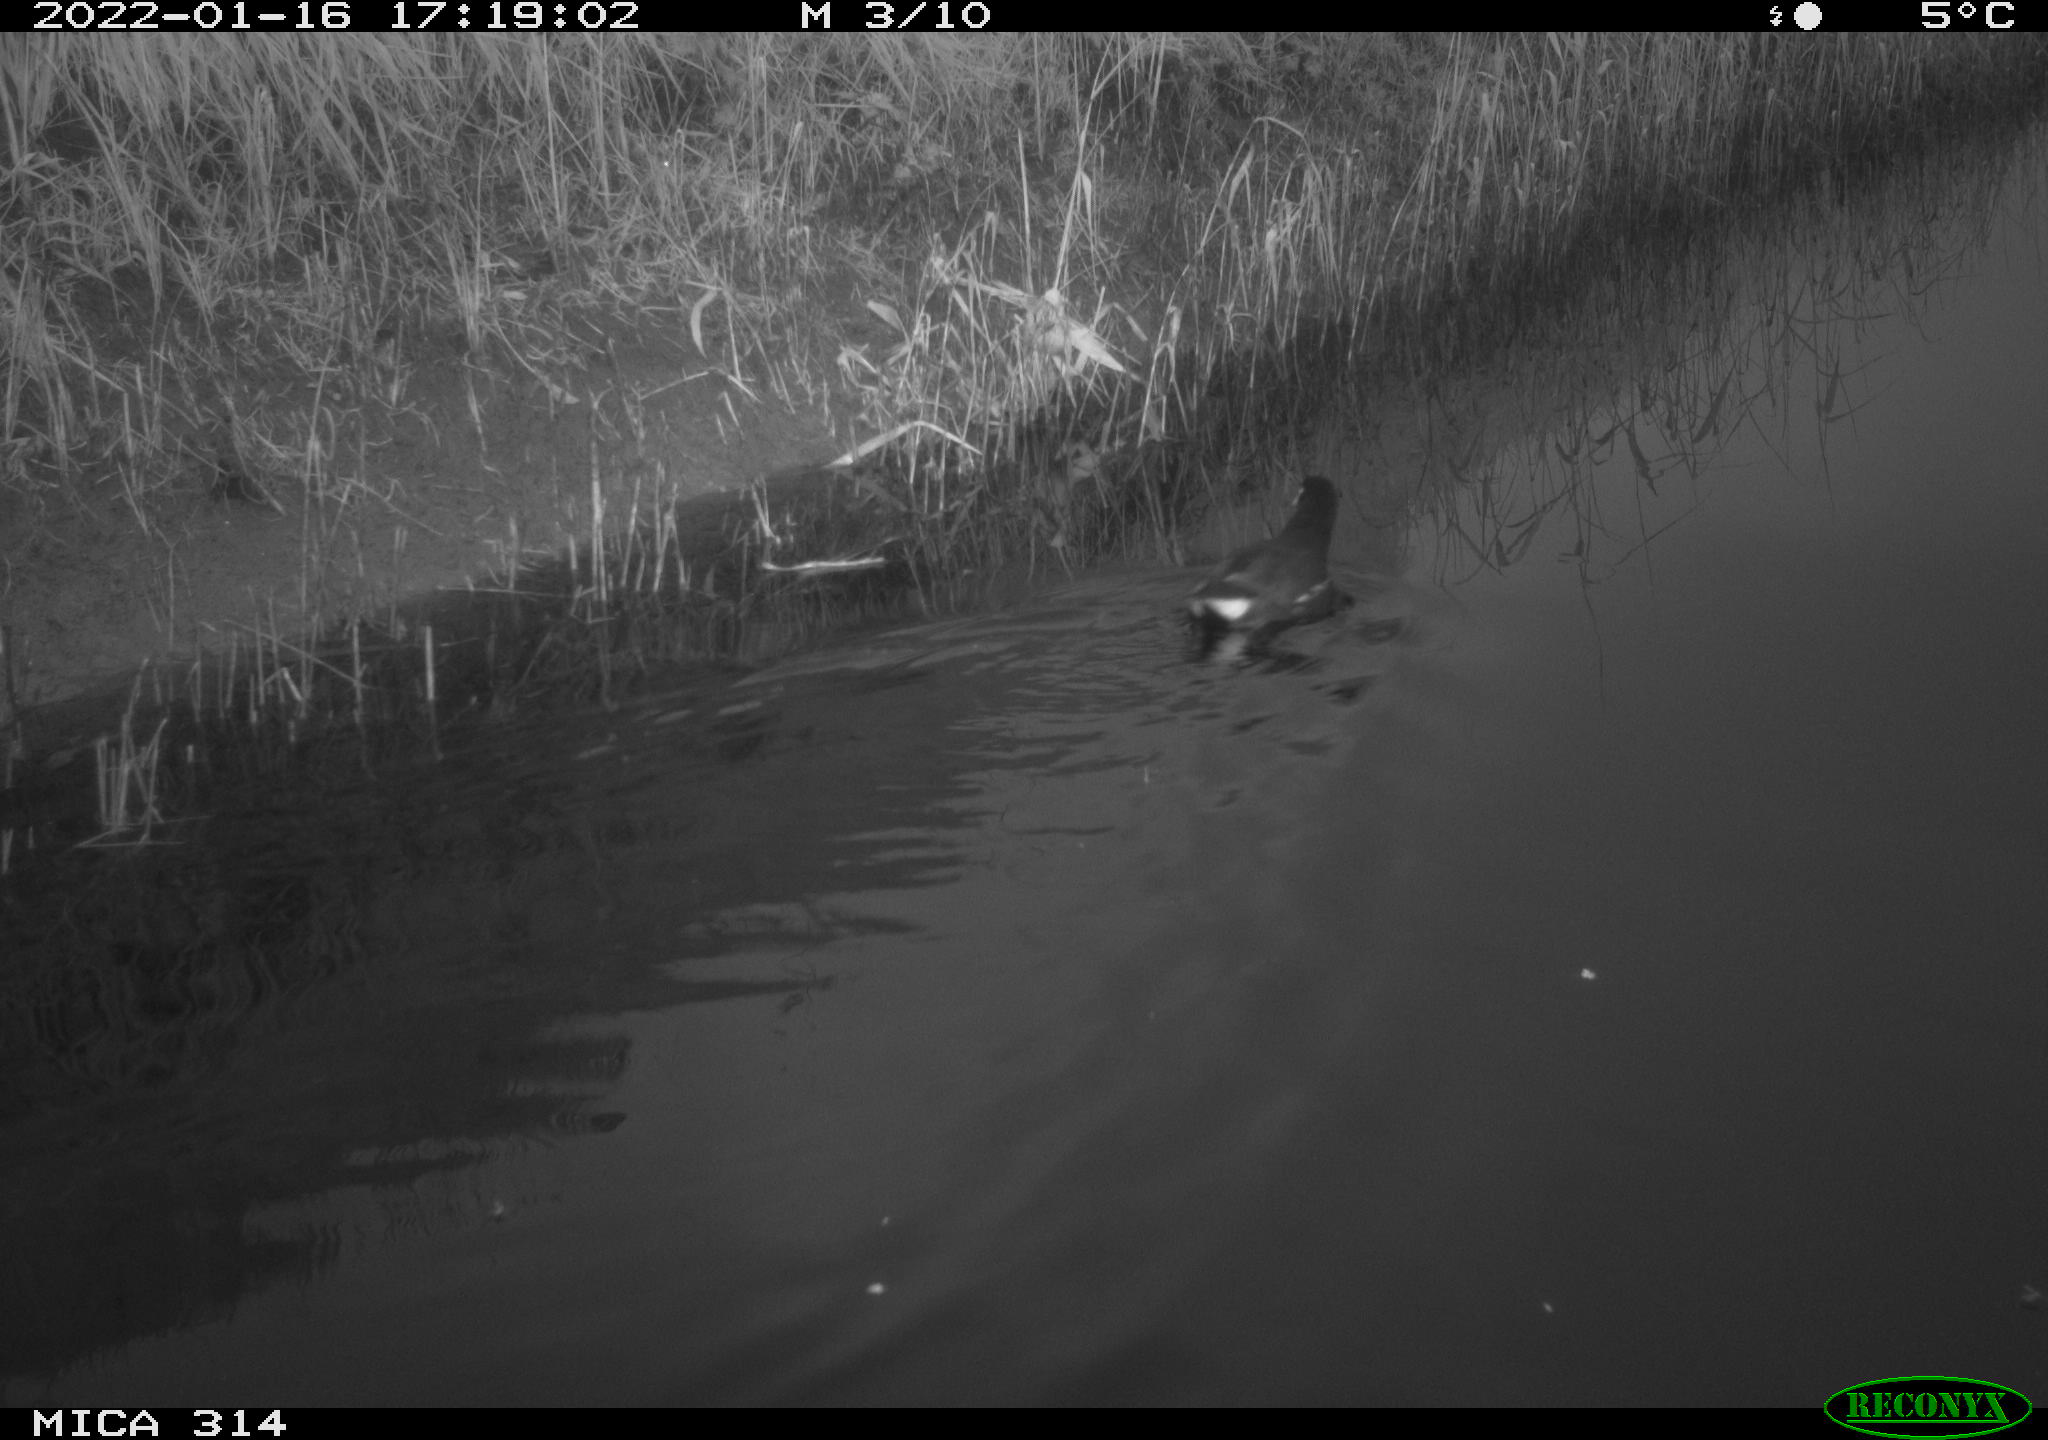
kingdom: Animalia
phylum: Chordata
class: Aves
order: Gruiformes
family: Rallidae
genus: Gallinula
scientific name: Gallinula chloropus
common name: Common moorhen
